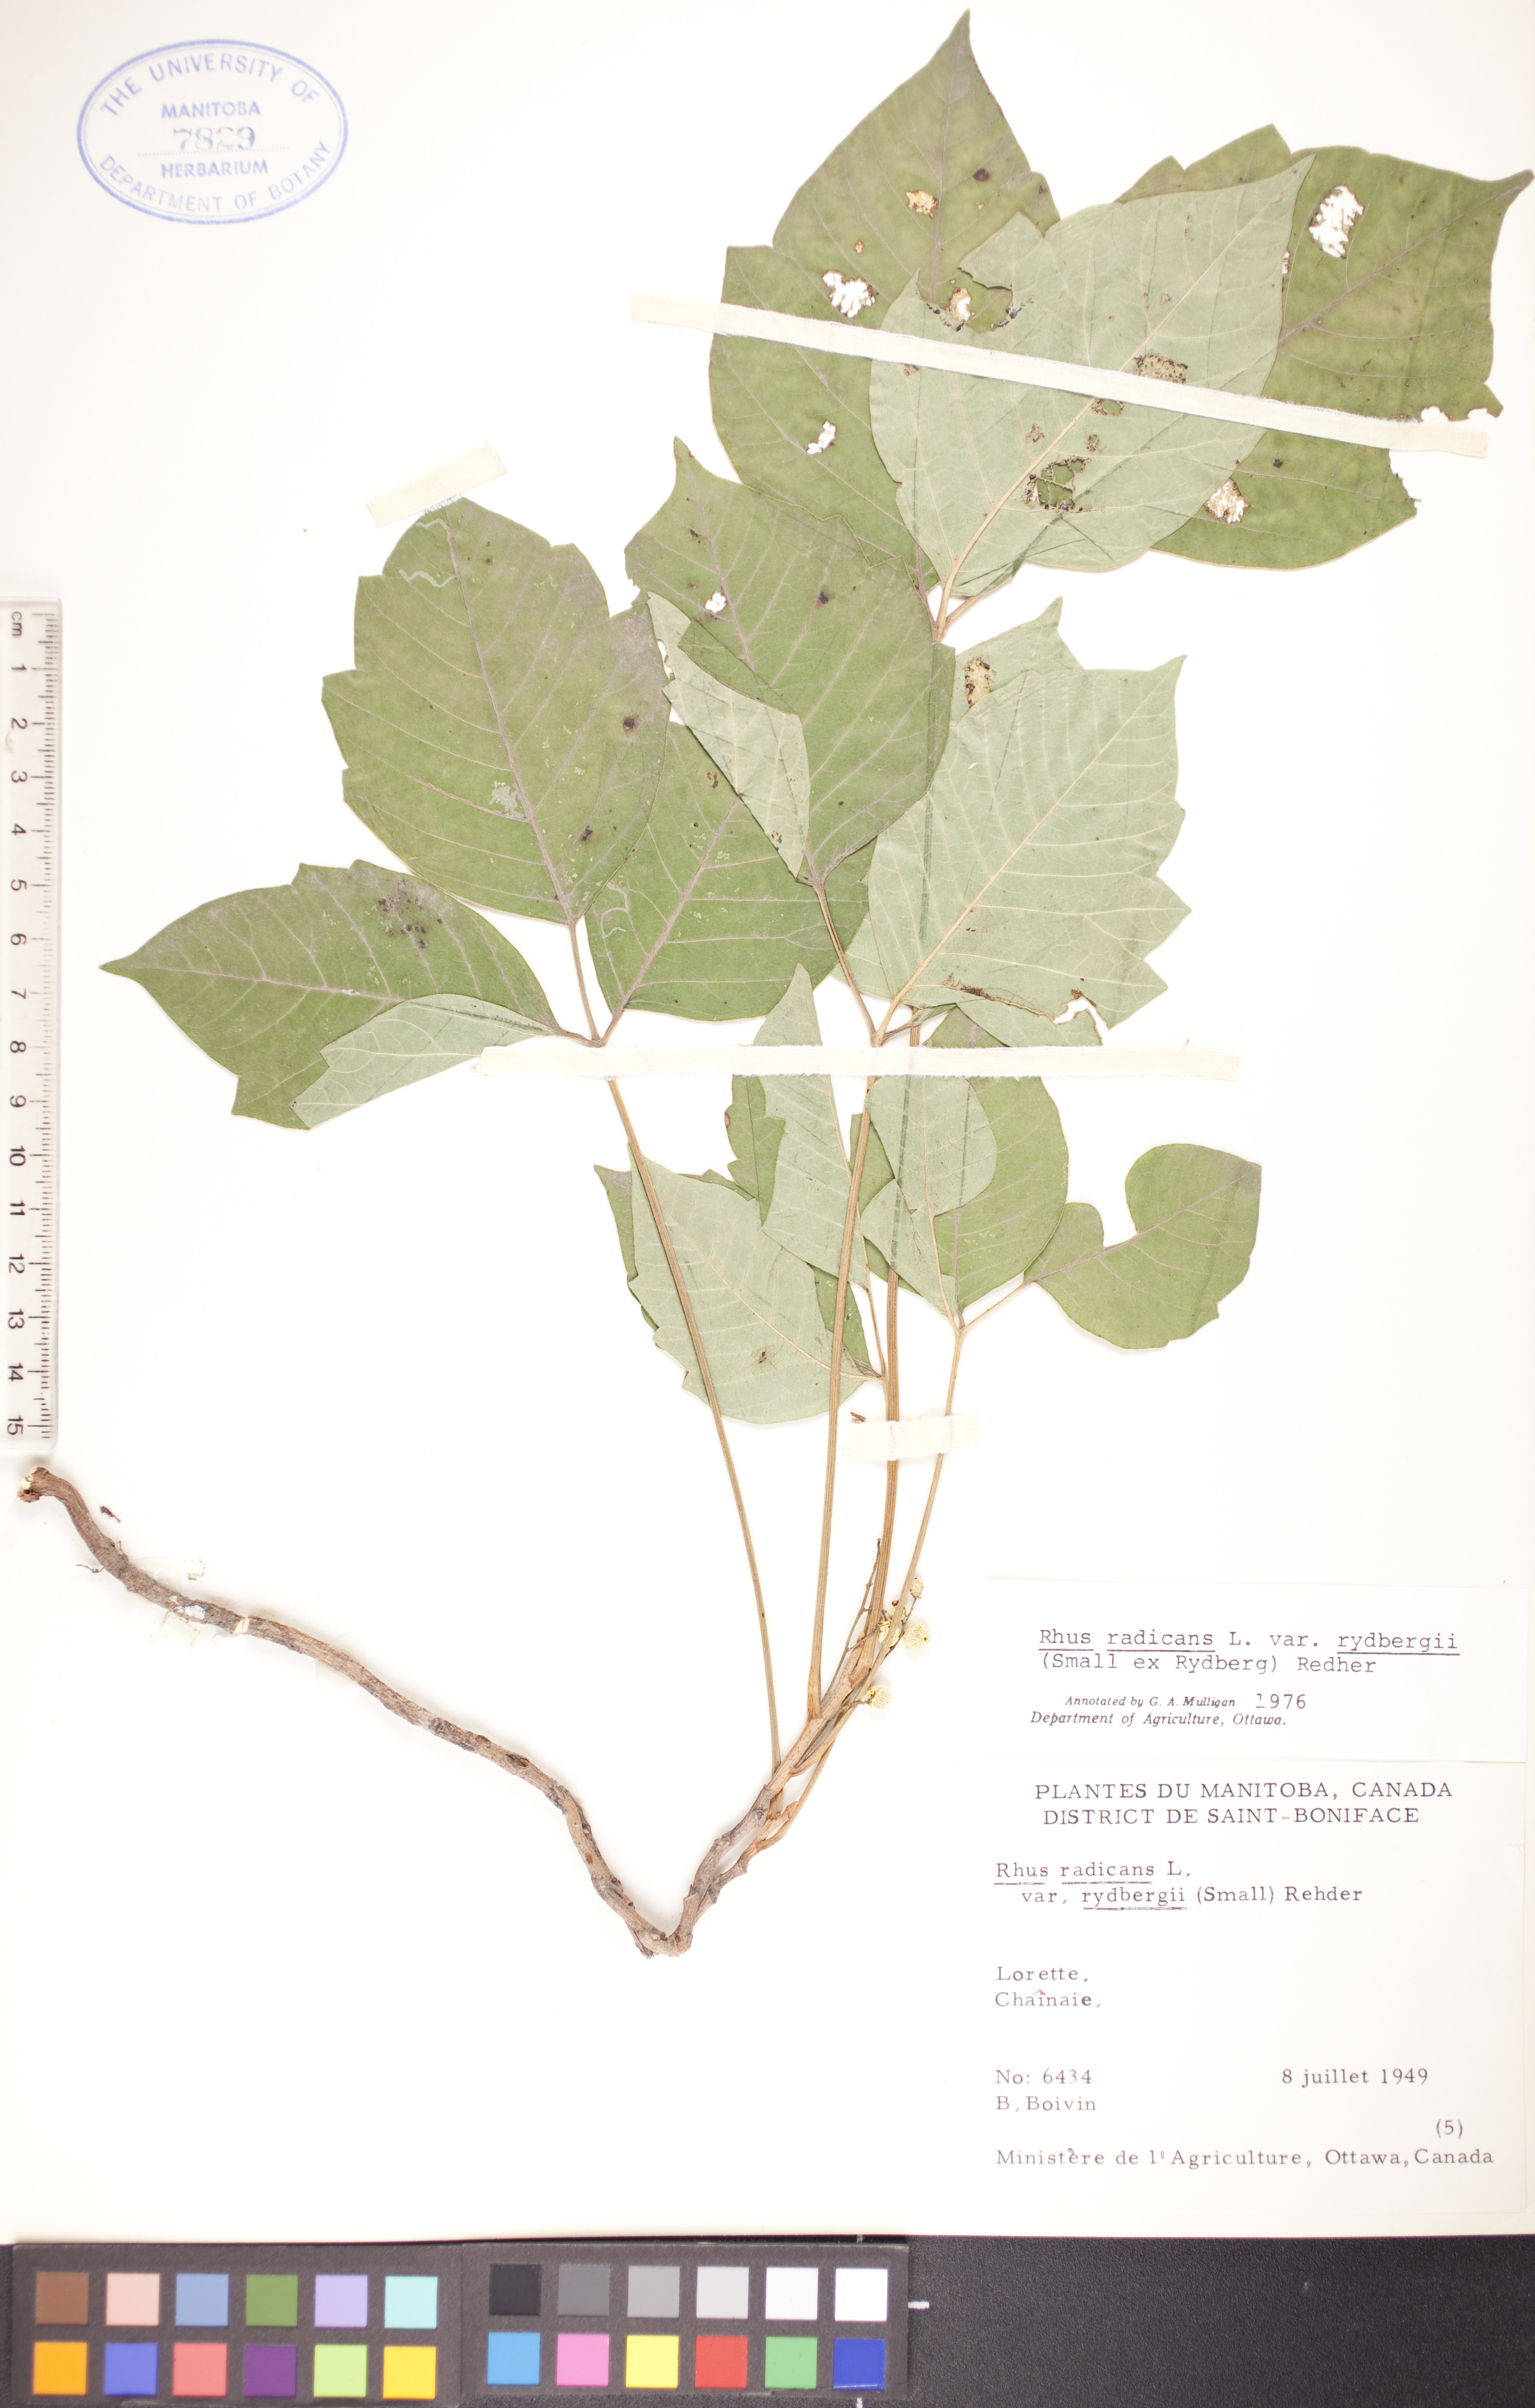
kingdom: Plantae
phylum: Tracheophyta
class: Magnoliopsida
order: Sapindales
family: Anacardiaceae
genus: Toxicodendron
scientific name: Toxicodendron radicans
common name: Poison ivy
